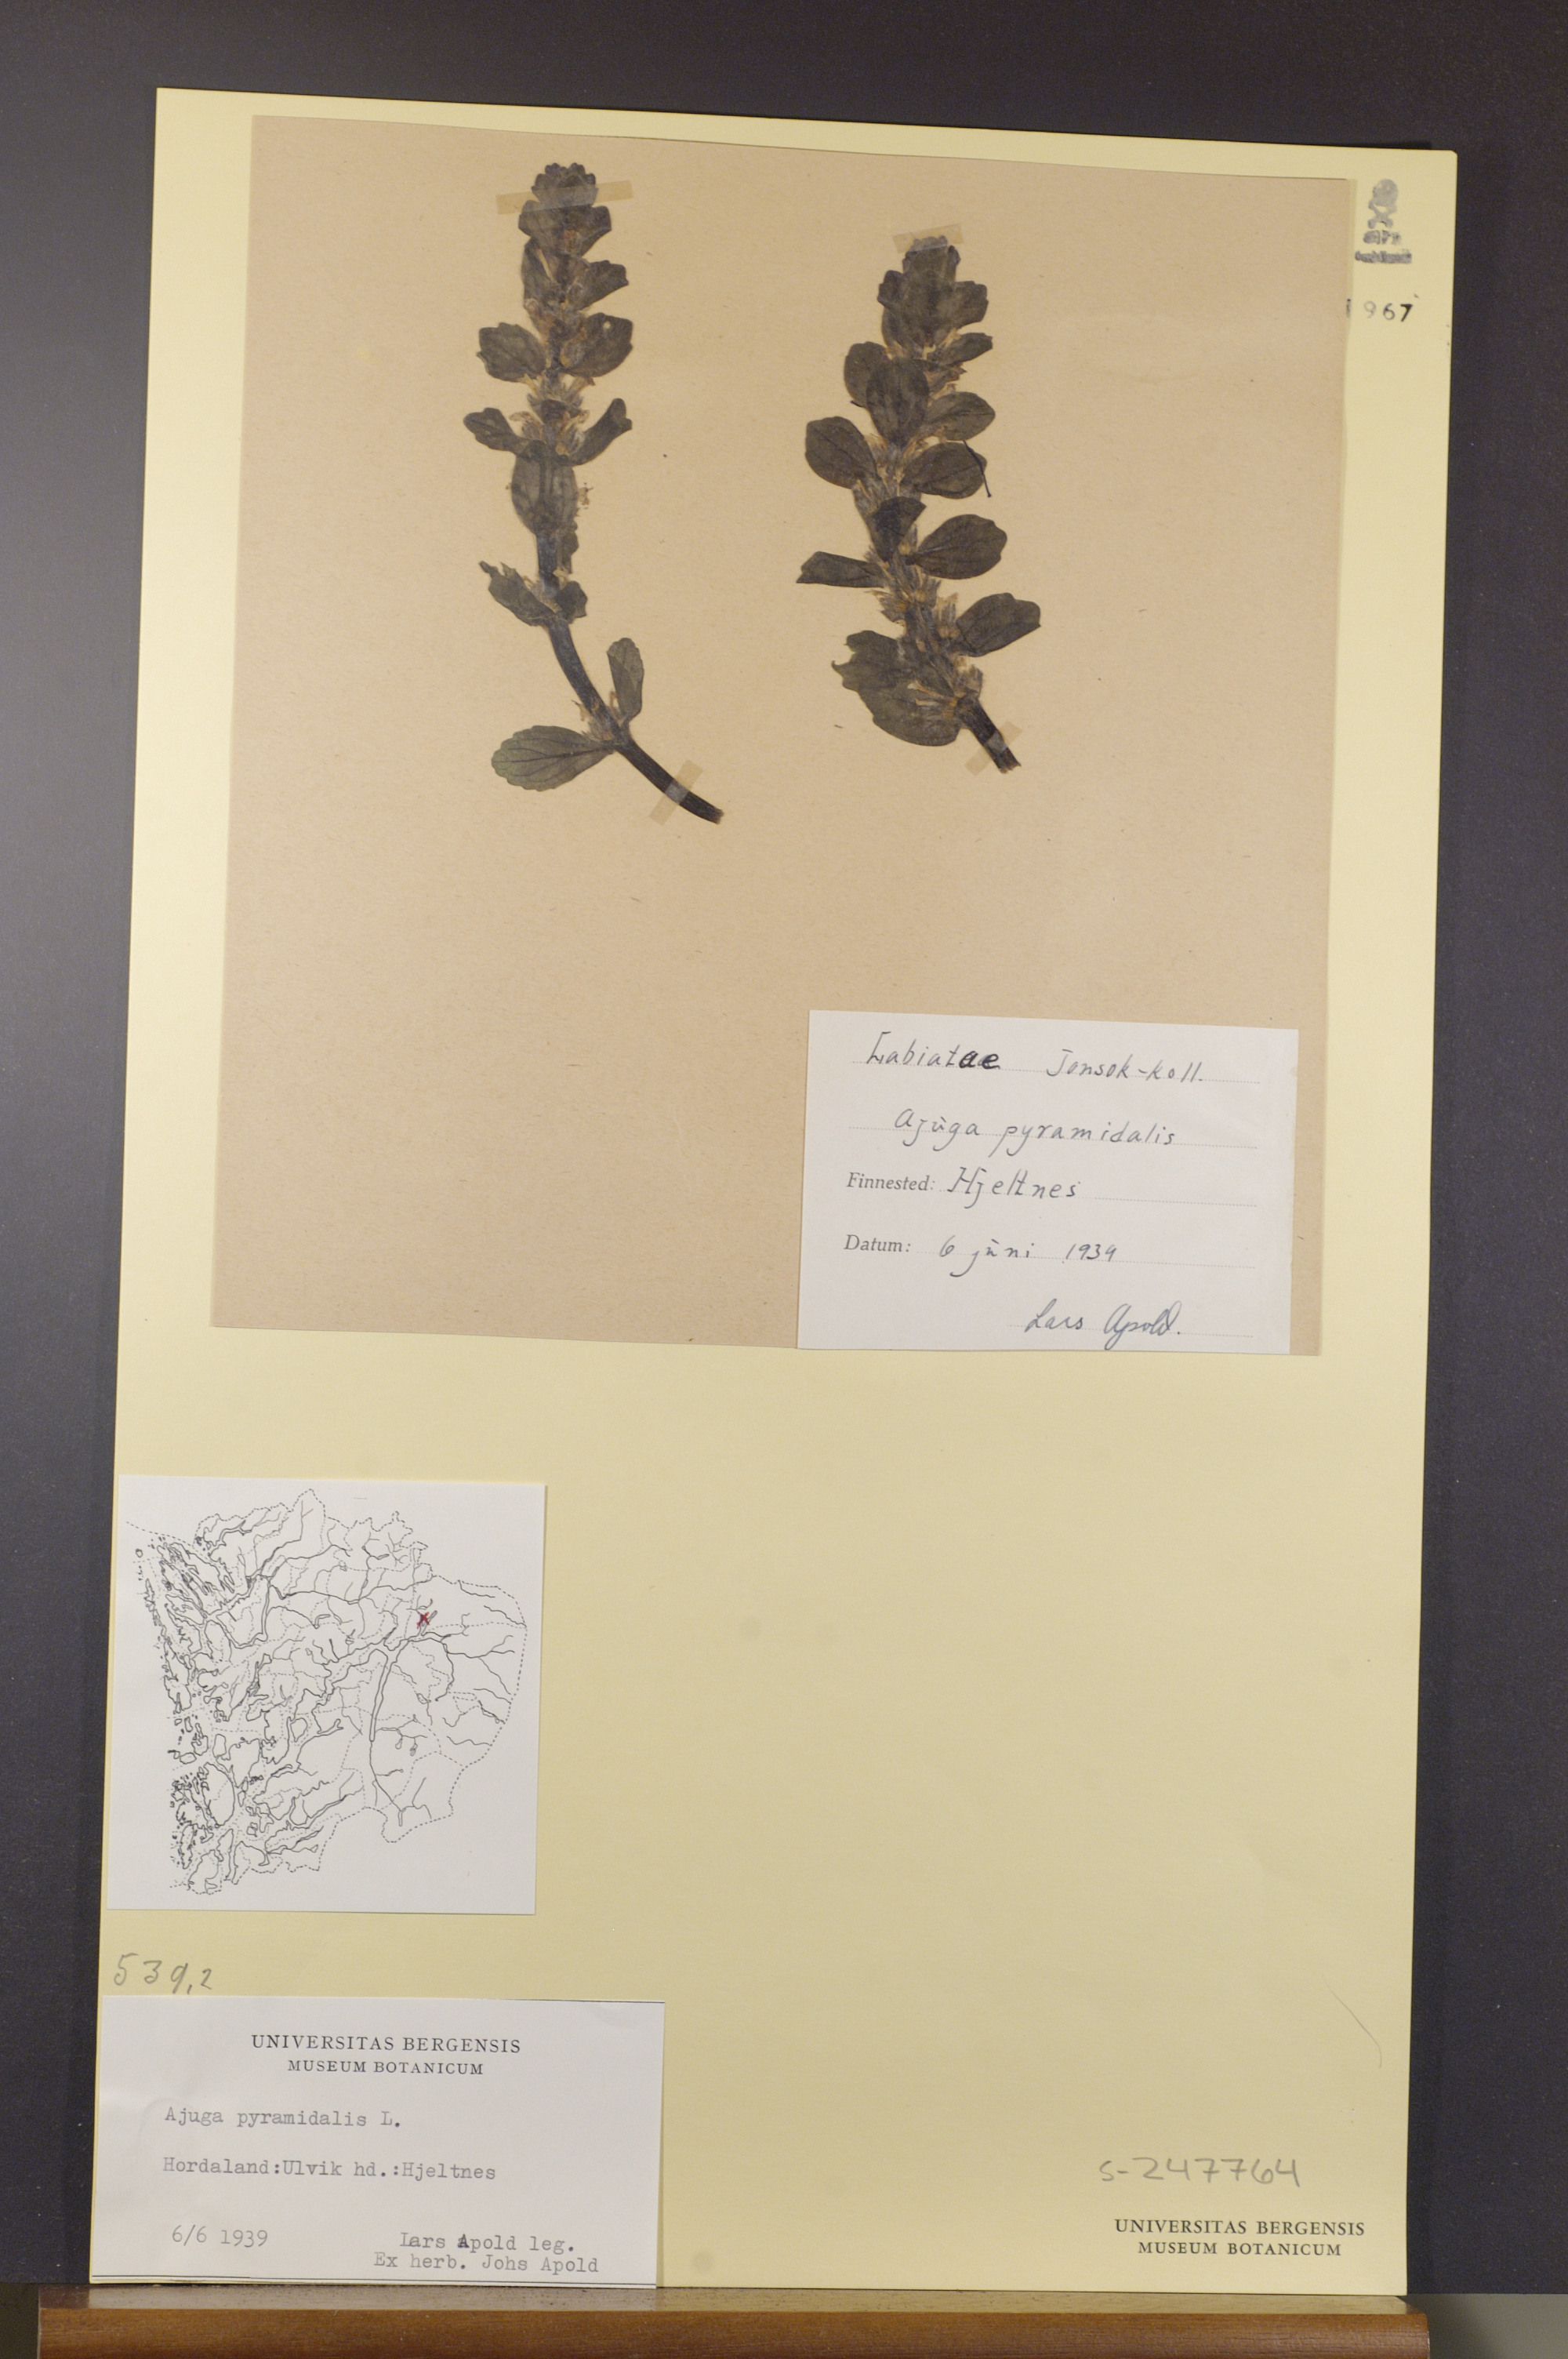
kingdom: Plantae
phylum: Tracheophyta
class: Magnoliopsida
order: Lamiales
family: Lamiaceae
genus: Ajuga
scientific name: Ajuga pyramidalis
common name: Pyramid bugle
